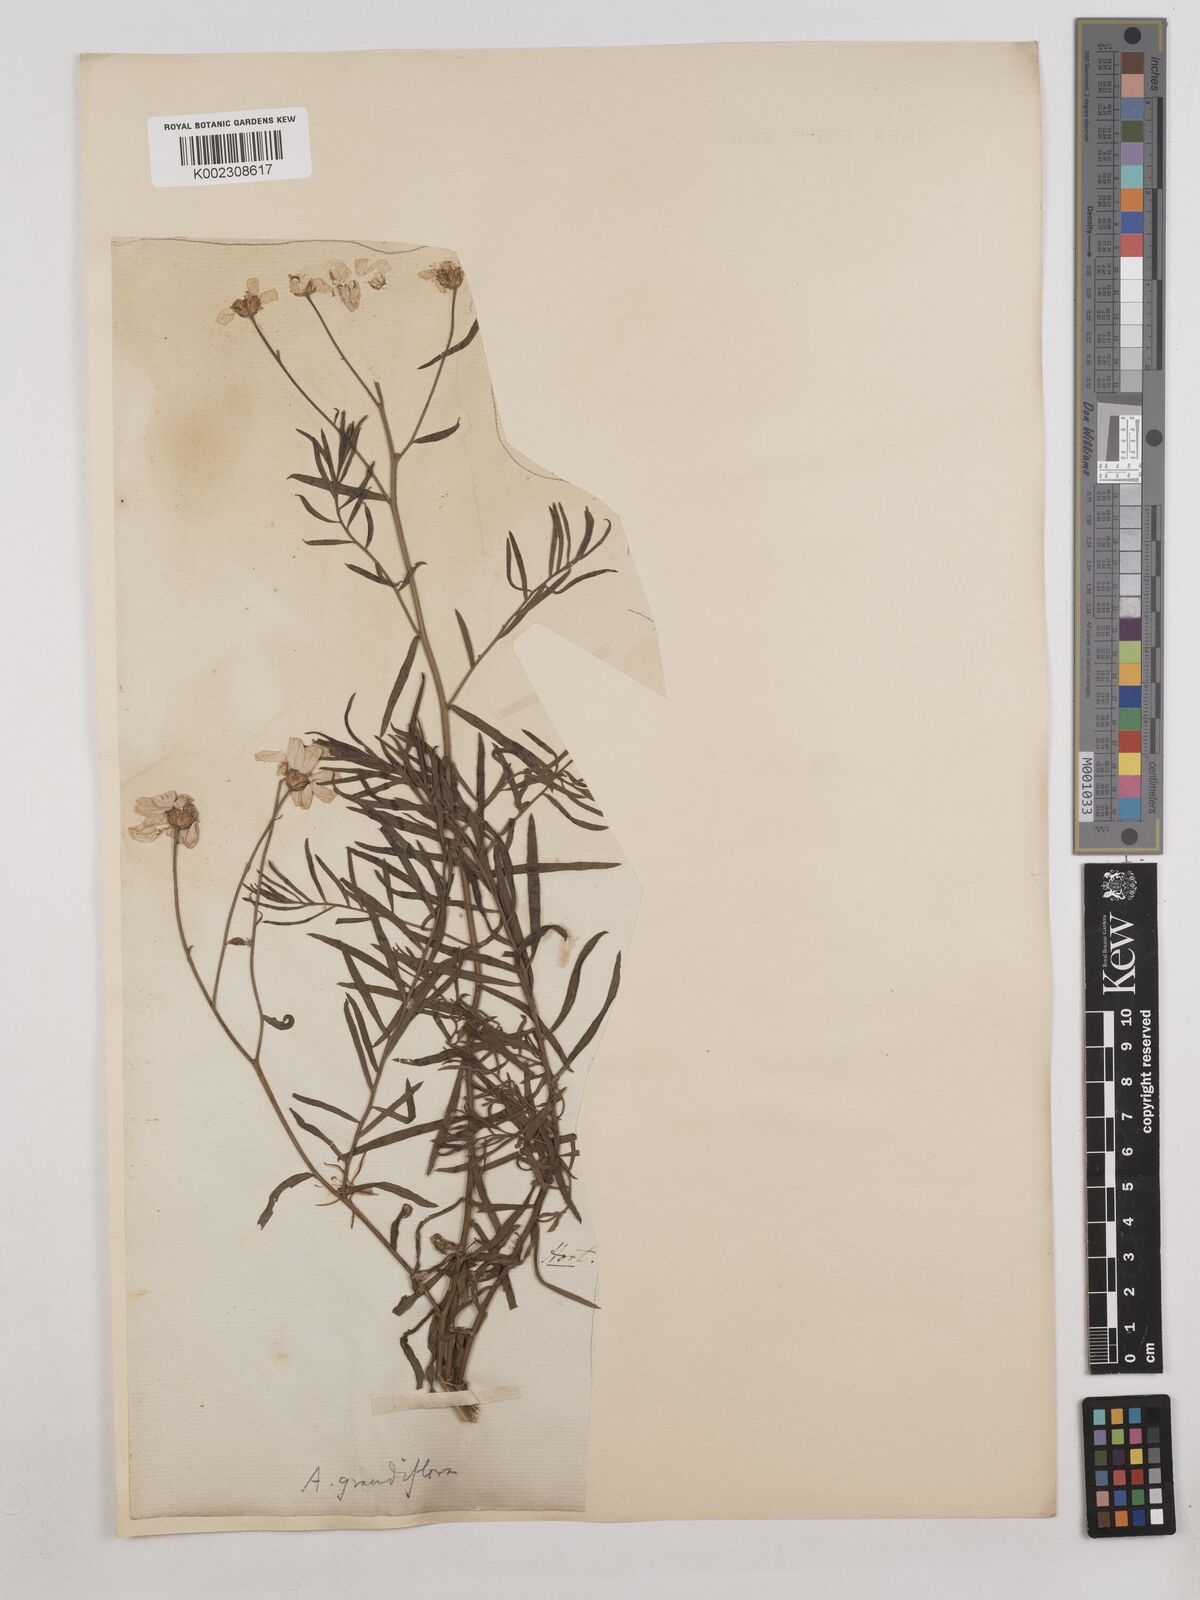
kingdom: Plantae
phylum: Tracheophyta
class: Magnoliopsida
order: Asterales
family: Asteraceae
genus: Achillea
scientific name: Achillea grandifolia
